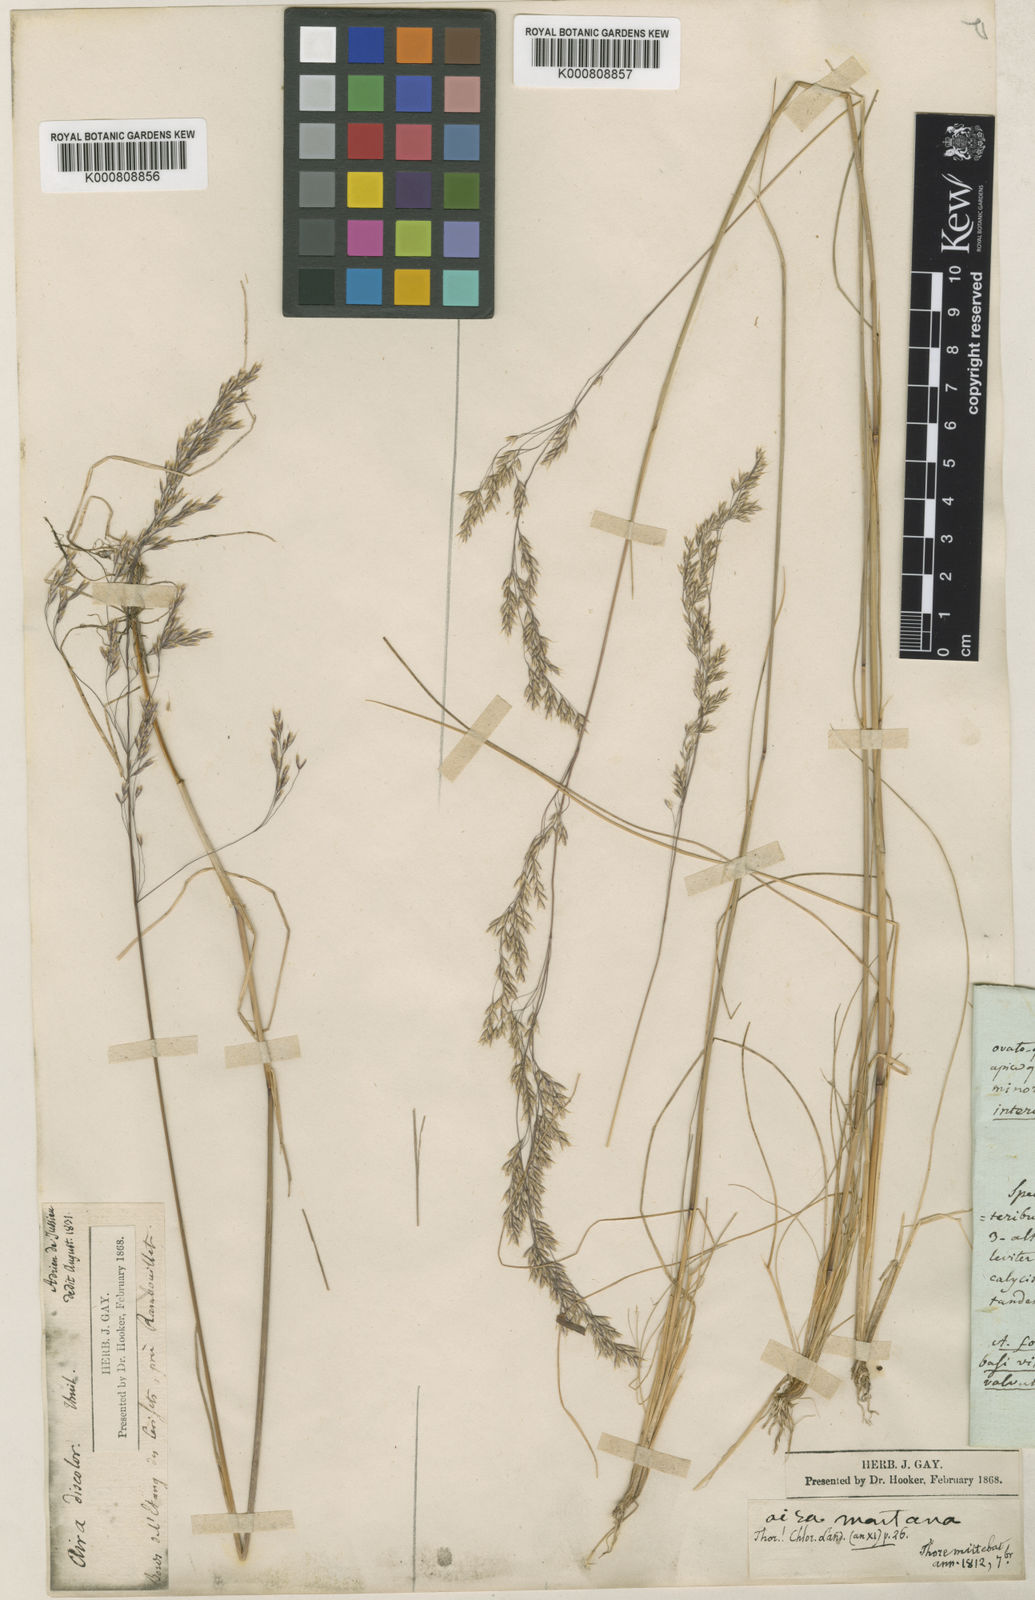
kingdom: Plantae
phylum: Tracheophyta
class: Liliopsida
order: Poales
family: Poaceae
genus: Deschampsia
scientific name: Deschampsia setacea
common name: Bog hair-grass
